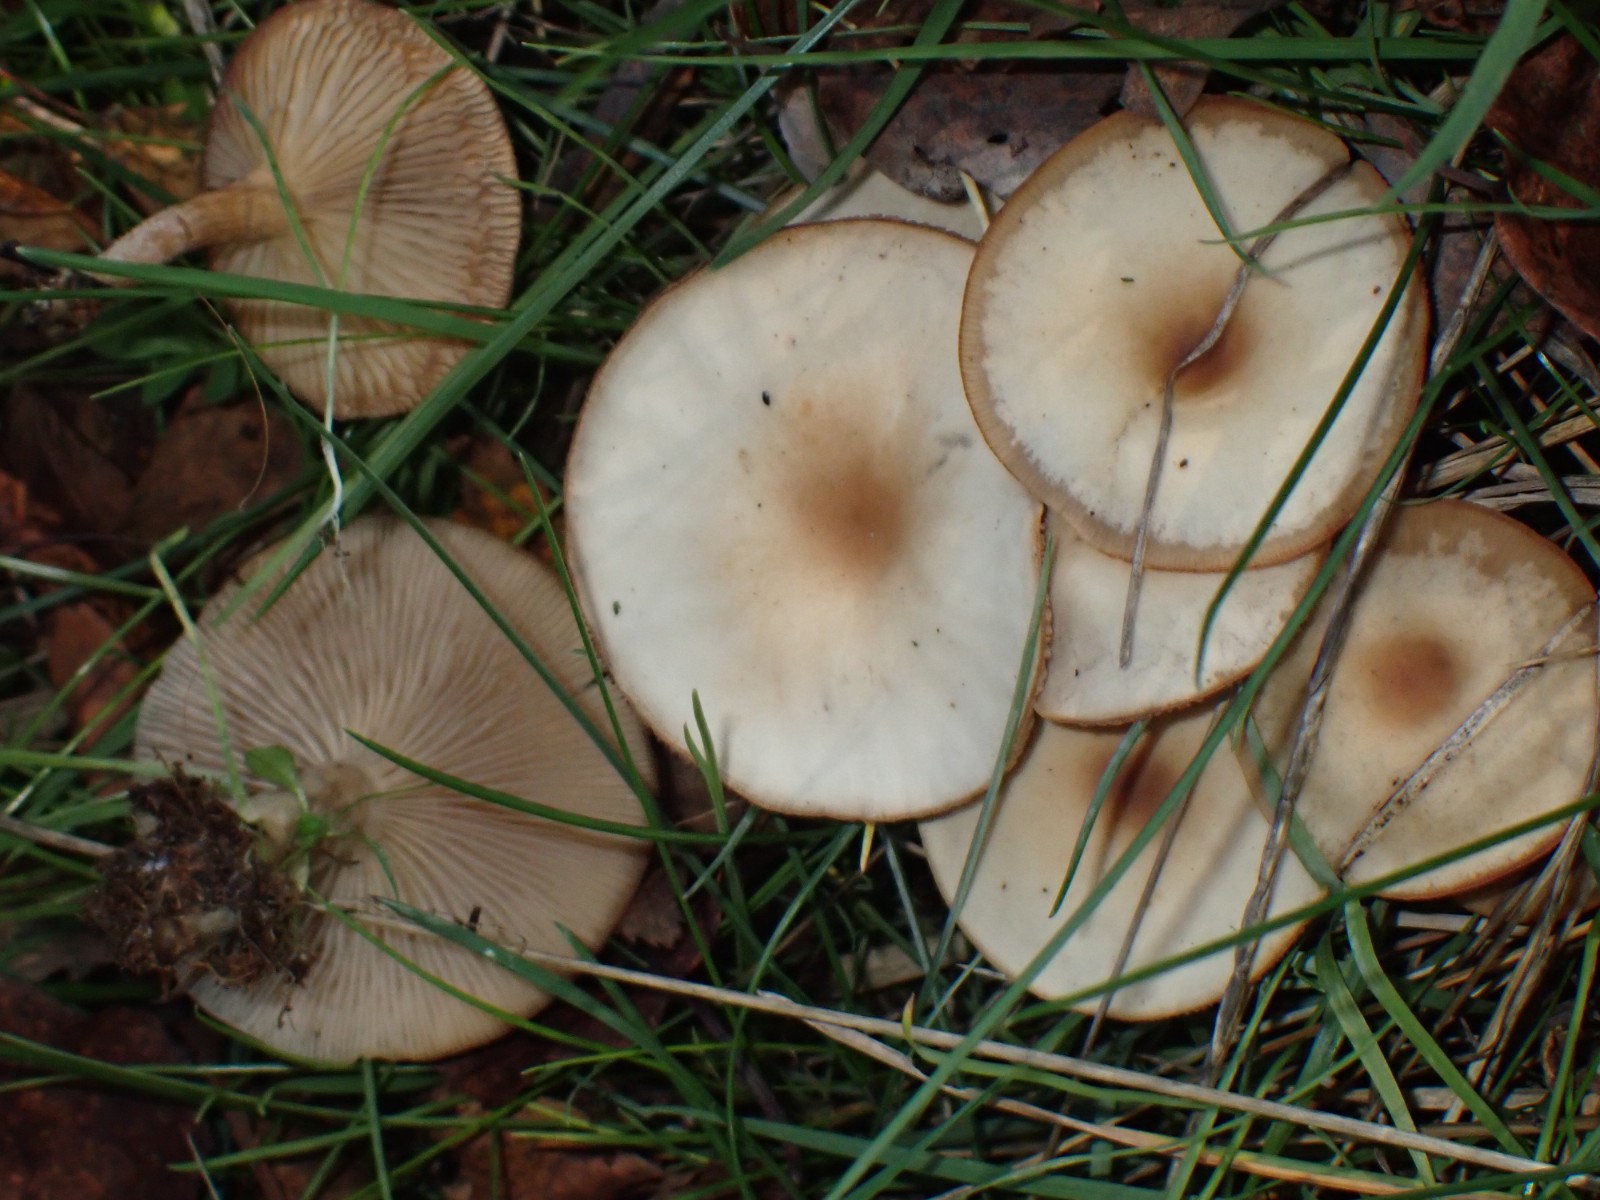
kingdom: Fungi
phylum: Basidiomycota
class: Agaricomycetes
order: Agaricales
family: Tricholomataceae
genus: Clitocybe
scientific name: Clitocybe
